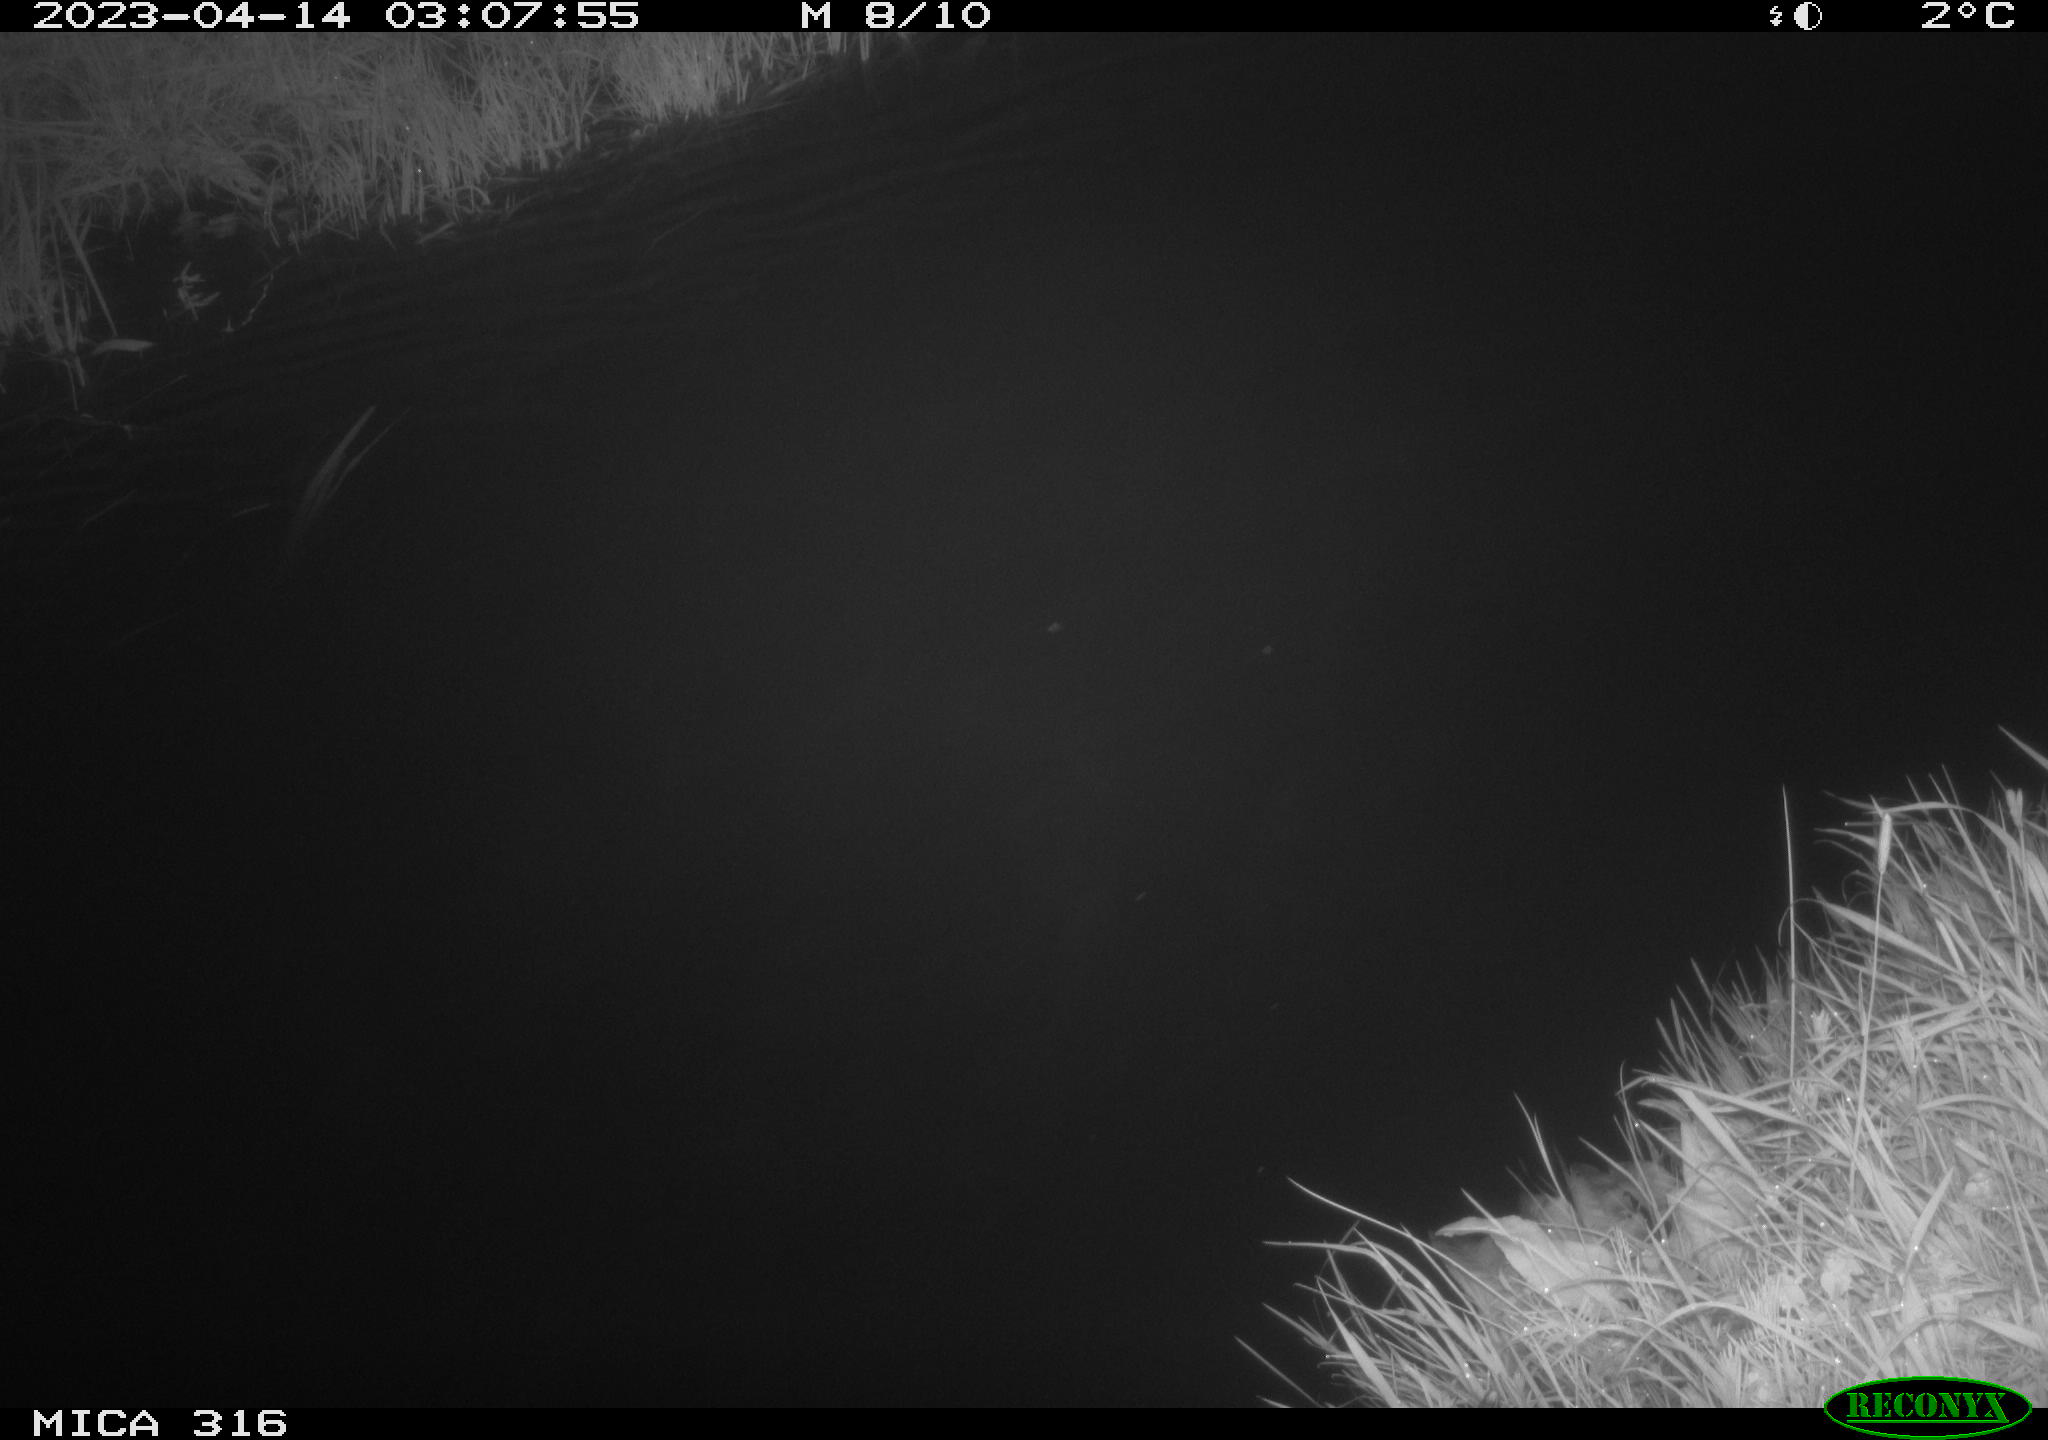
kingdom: Animalia
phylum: Chordata
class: Aves
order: Anseriformes
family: Anatidae
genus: Anas
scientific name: Anas
